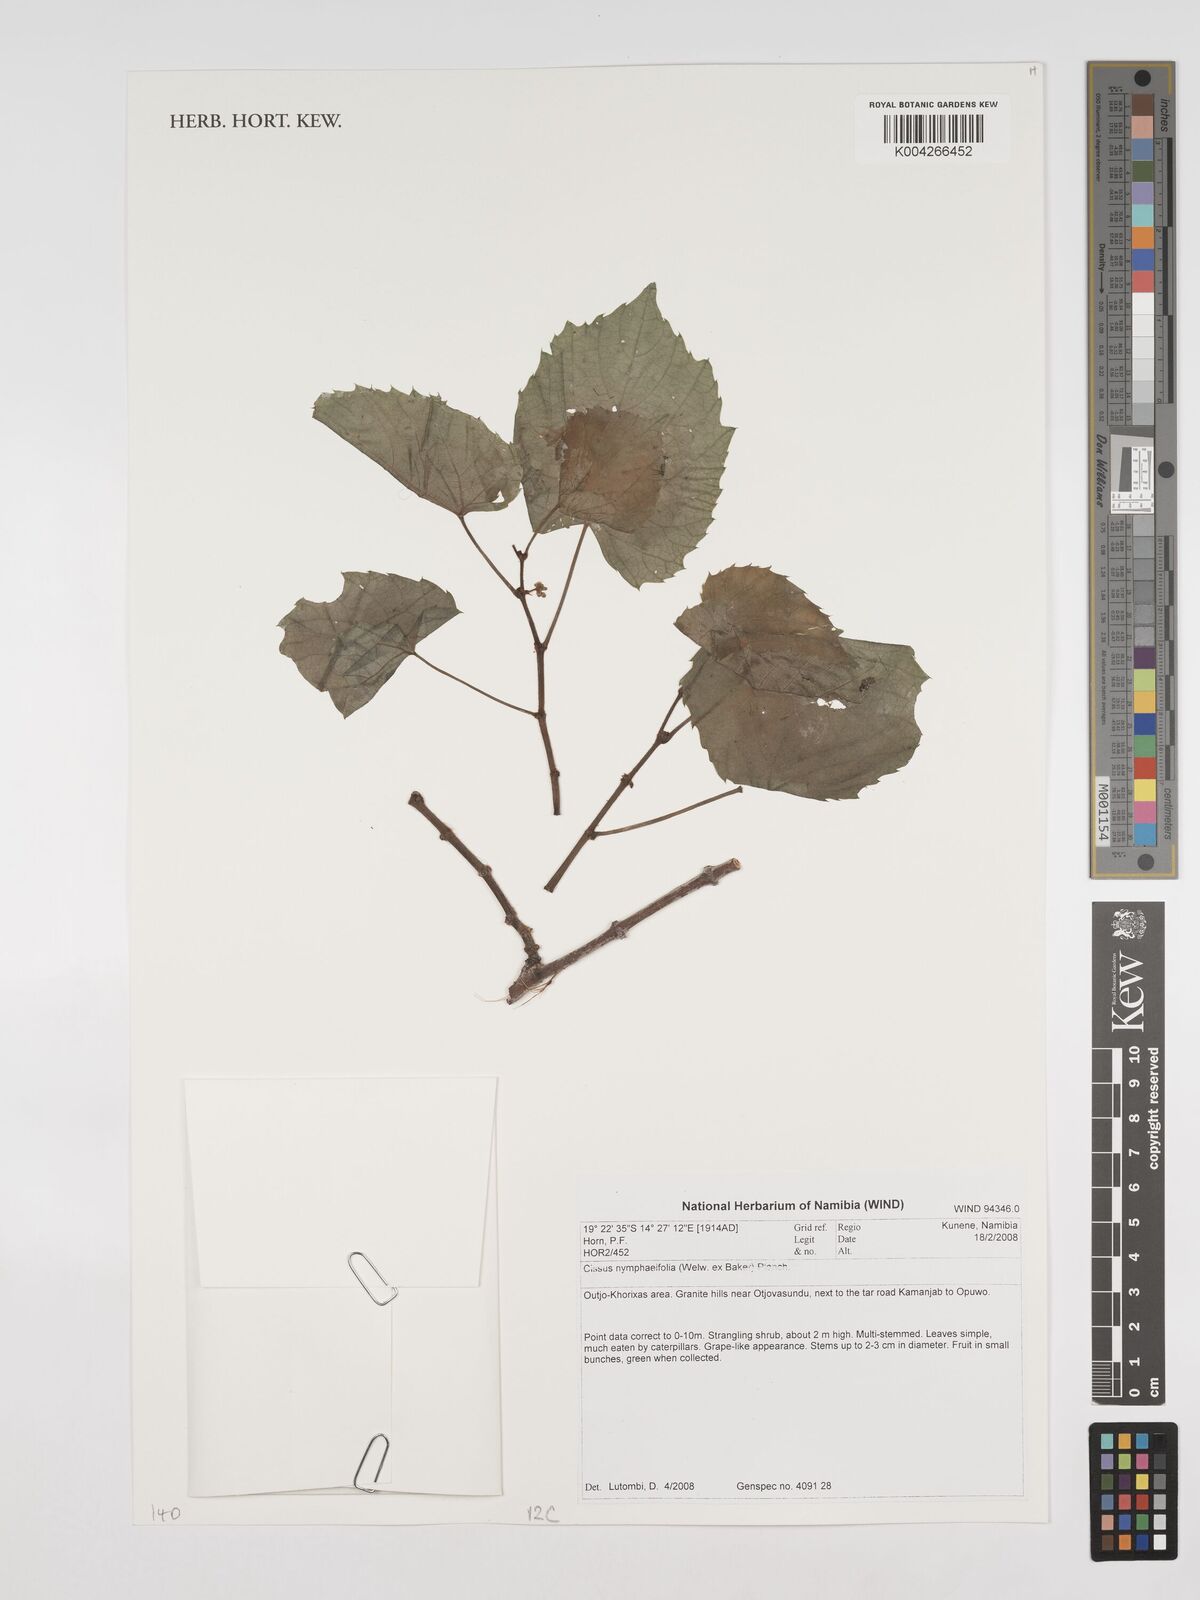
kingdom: Plantae
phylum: Tracheophyta
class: Magnoliopsida
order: Vitales
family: Vitaceae
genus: Cissus
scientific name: Cissus nymphaeifolia
